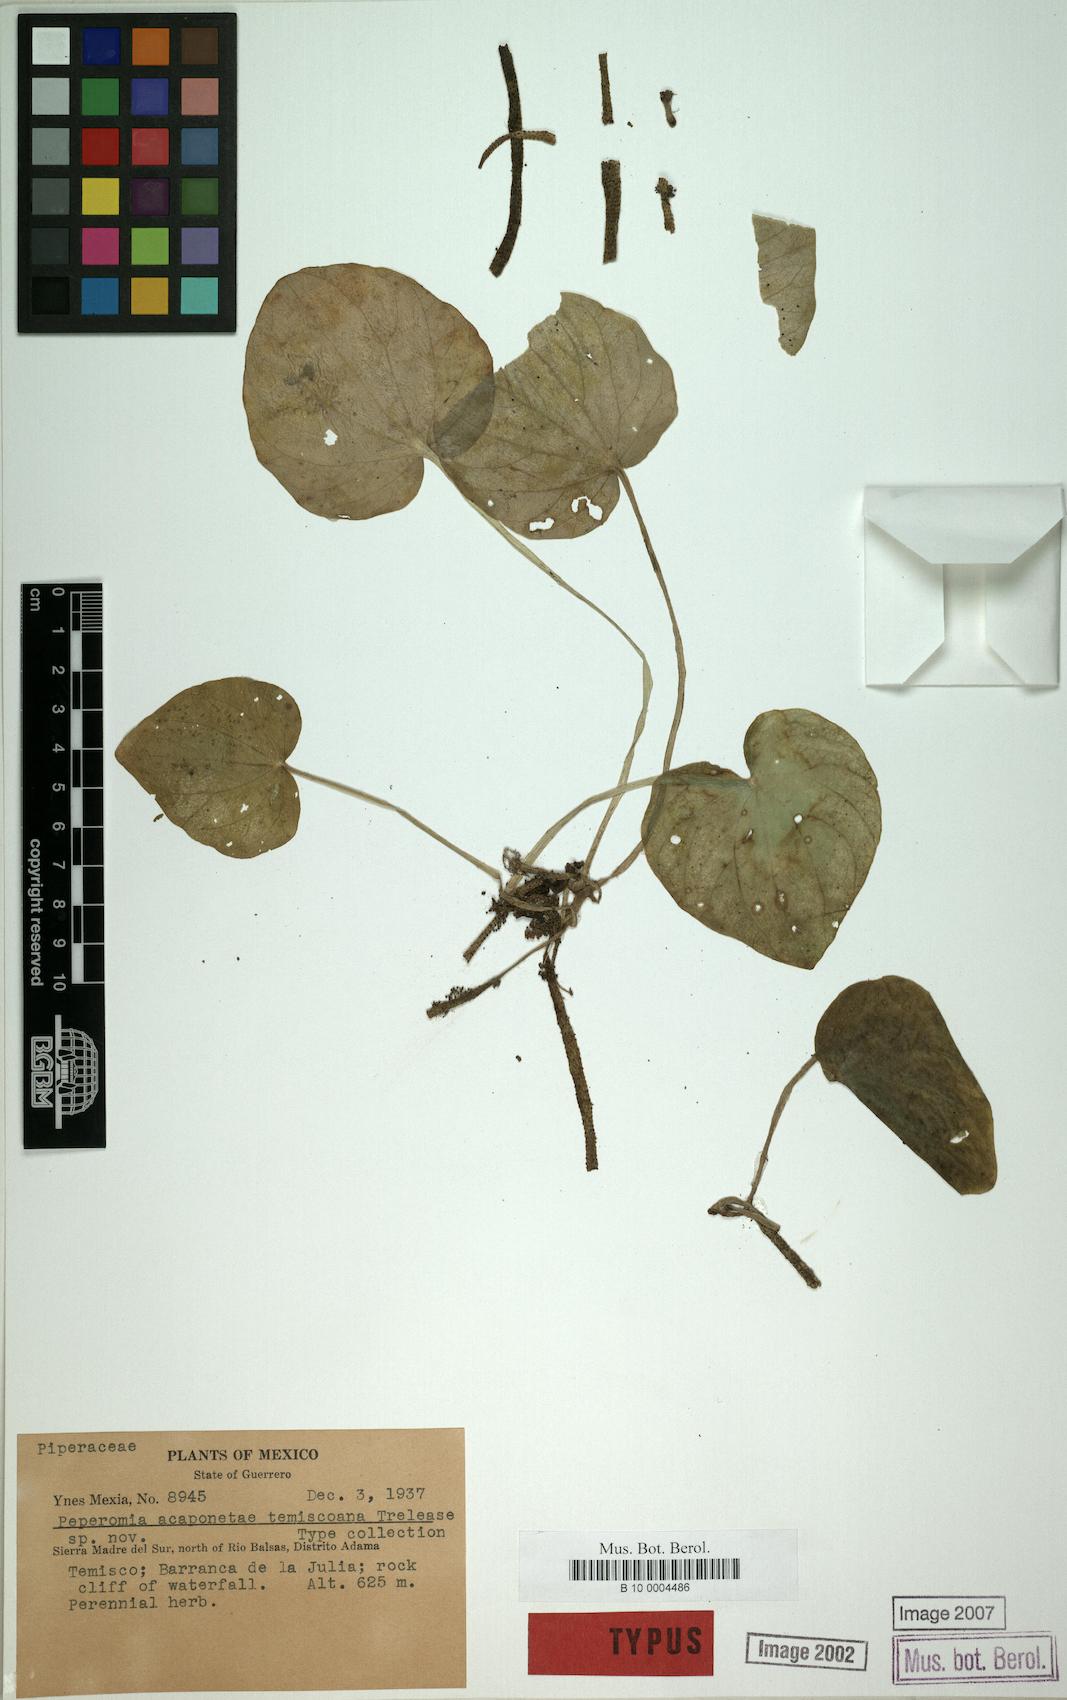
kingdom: Plantae
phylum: Tracheophyta
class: Magnoliopsida
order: Piperales
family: Piperaceae
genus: Peperomia
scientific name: Peperomia
